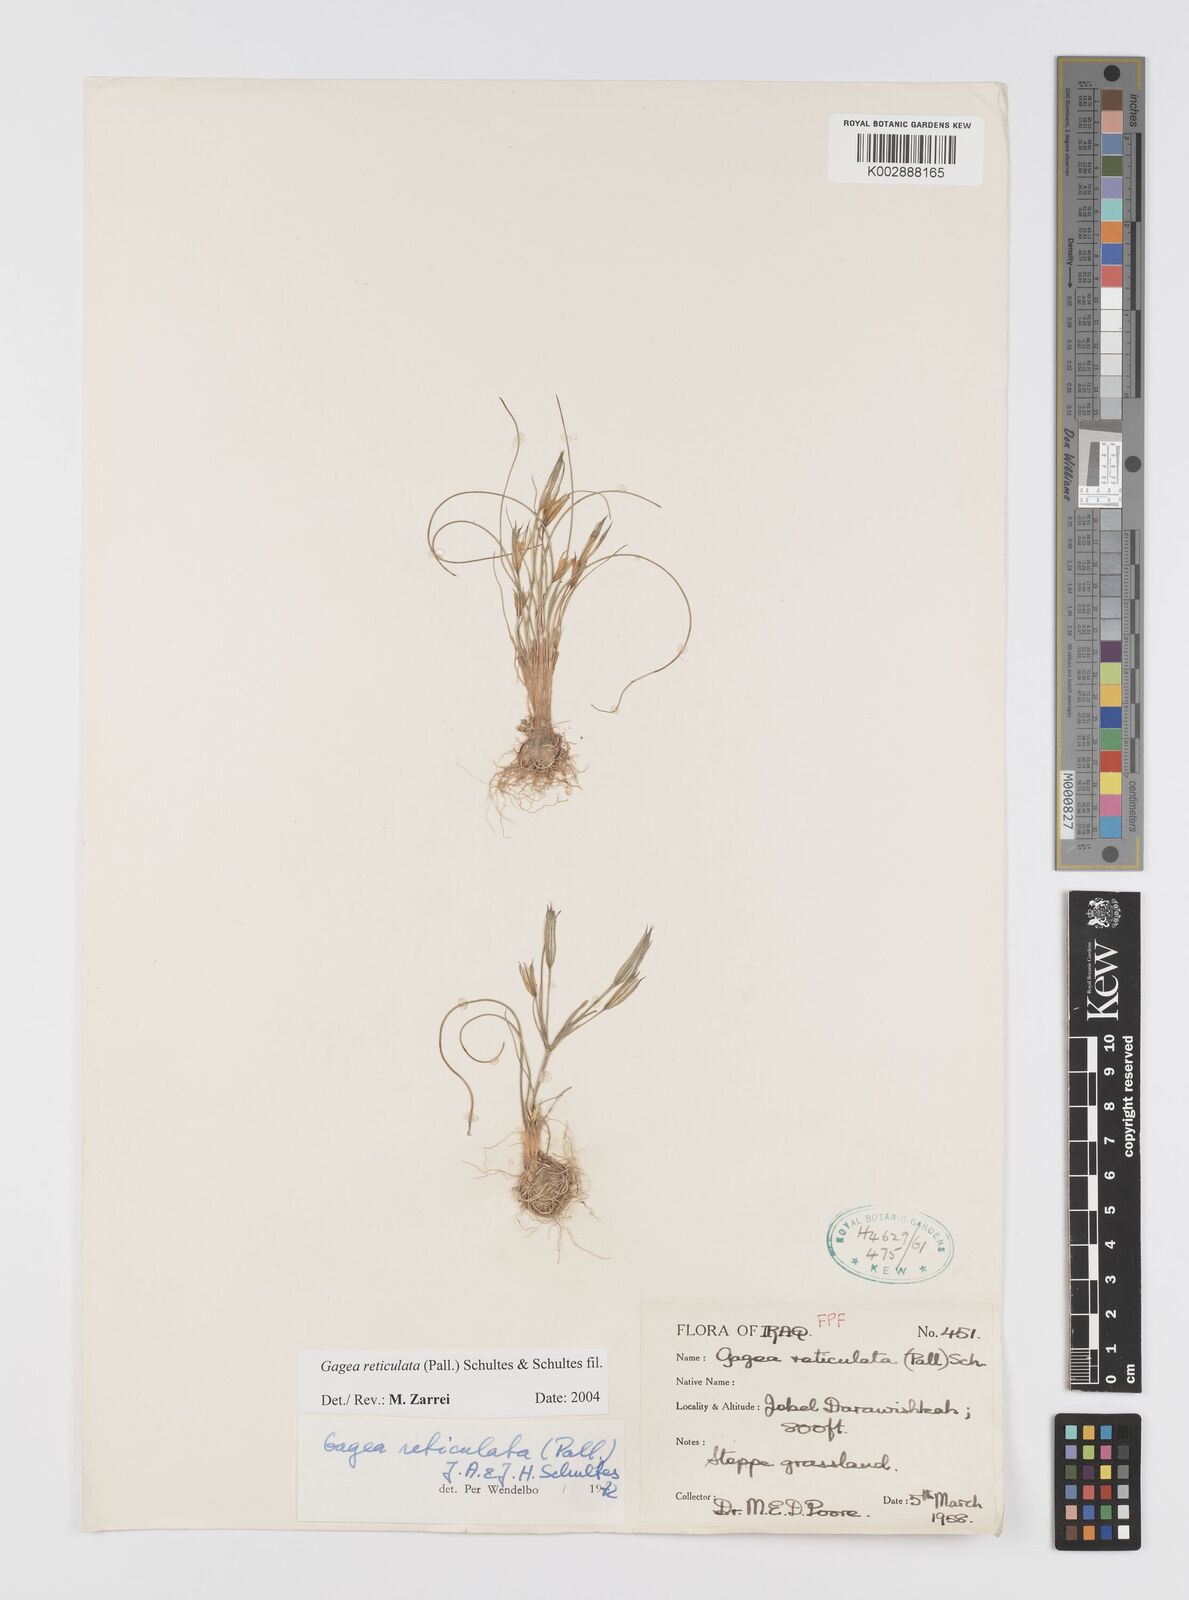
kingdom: Plantae
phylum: Tracheophyta
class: Liliopsida
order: Liliales
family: Liliaceae
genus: Gagea
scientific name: Gagea reticulata
